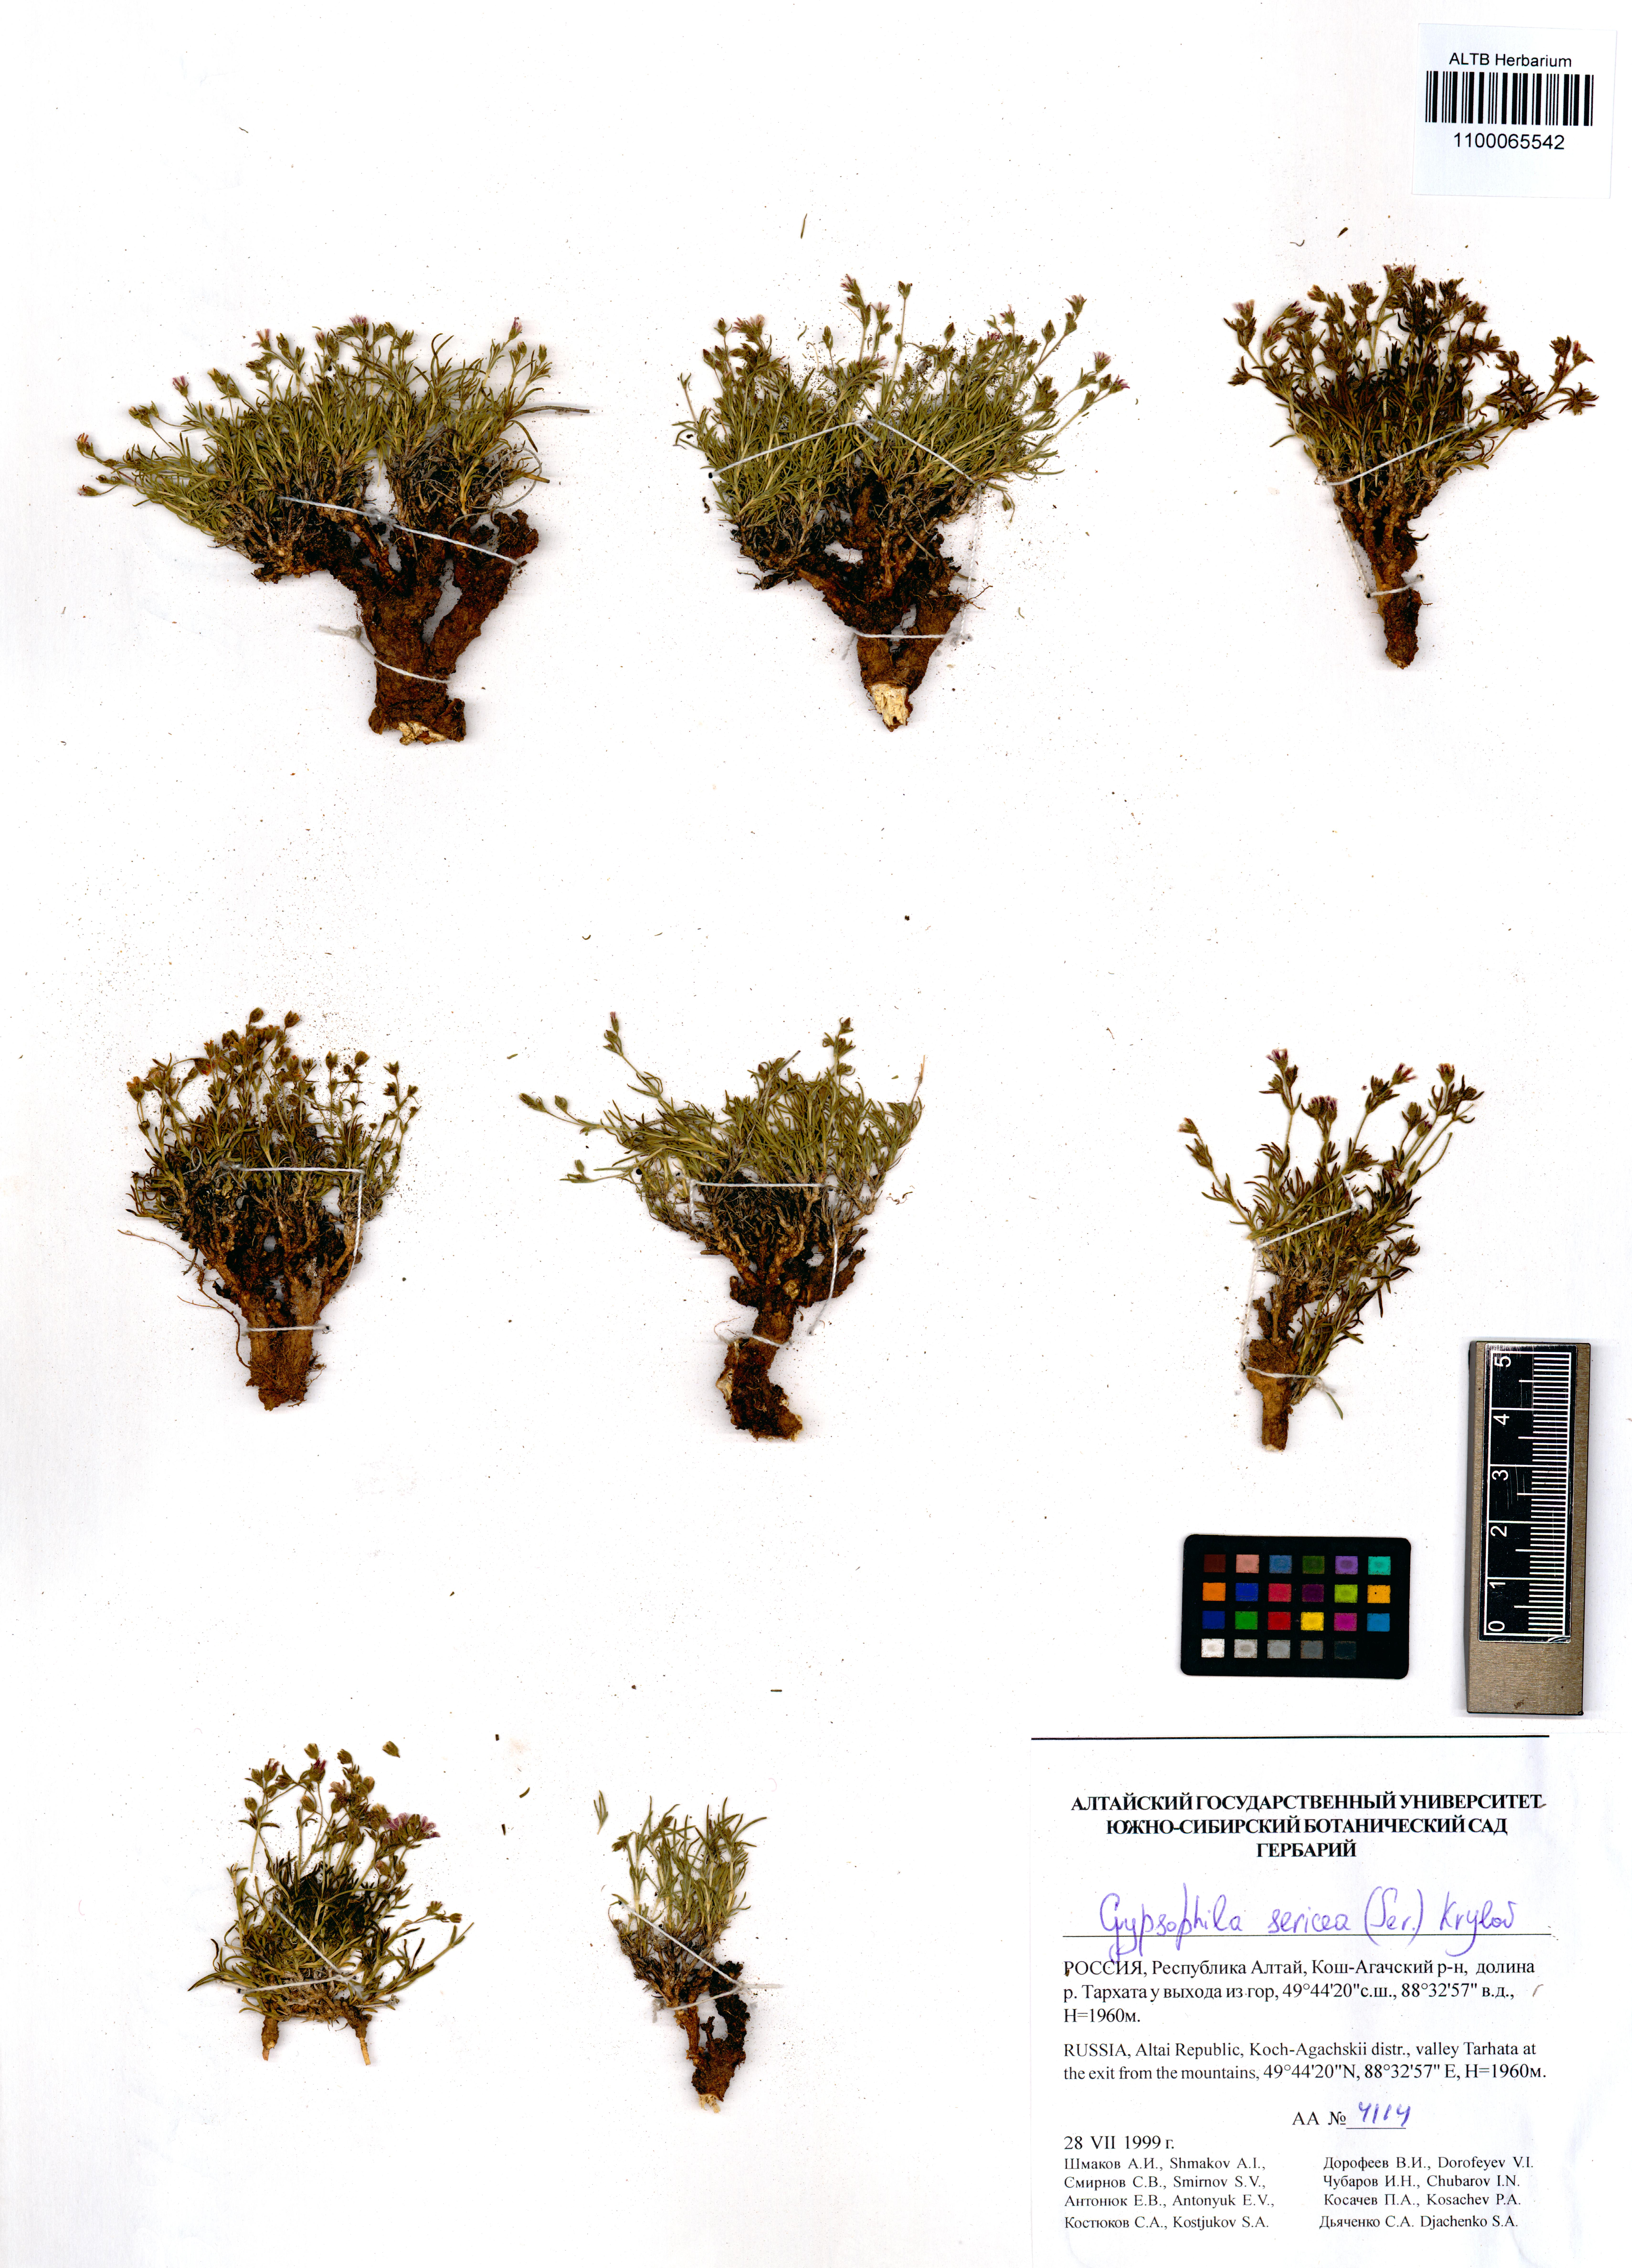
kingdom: Plantae
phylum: Tracheophyta
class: Magnoliopsida
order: Caryophyllales
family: Caryophyllaceae
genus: Heterochroa
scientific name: Heterochroa petraea
